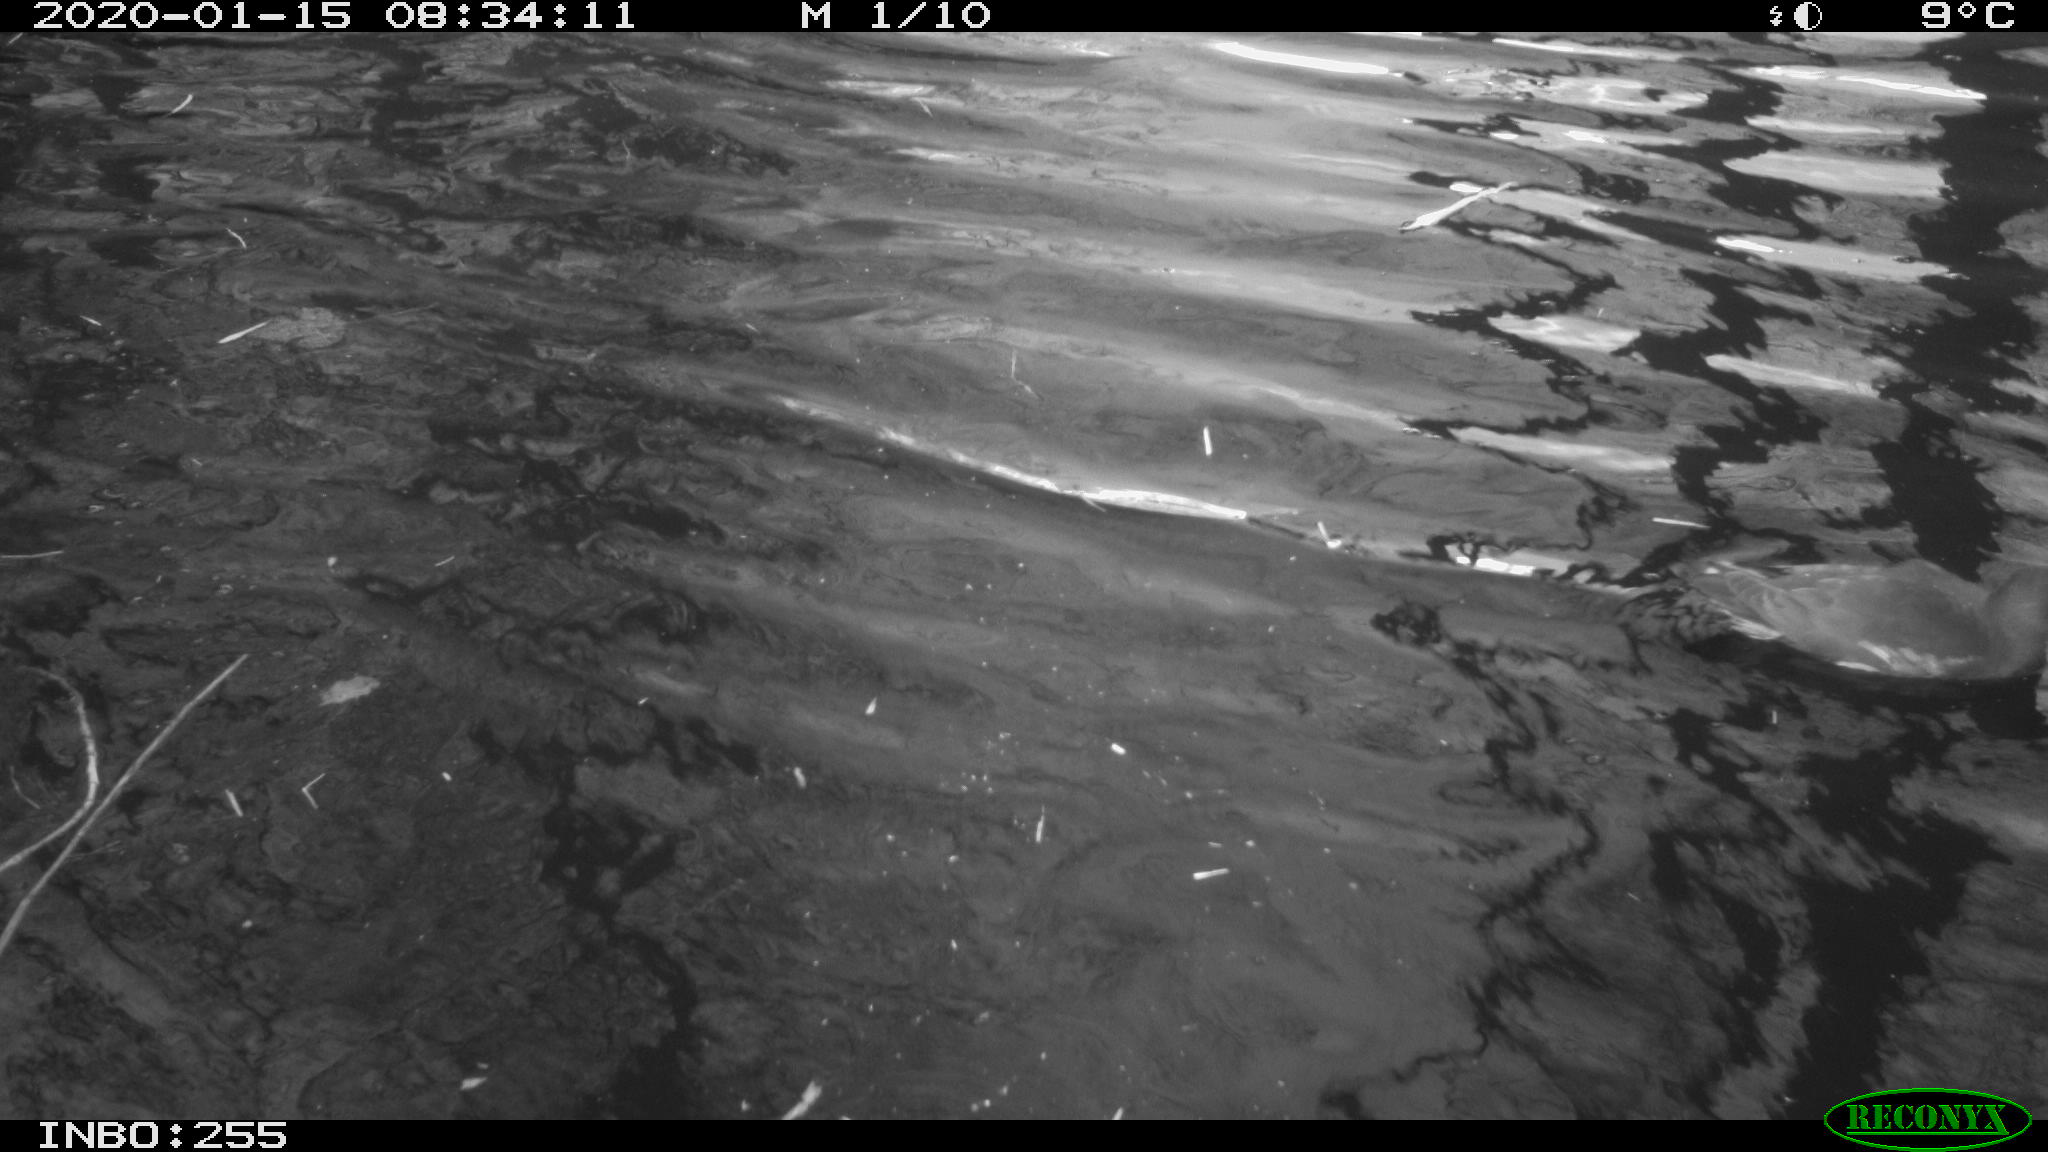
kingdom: Animalia
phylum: Chordata
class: Aves
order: Gruiformes
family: Rallidae
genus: Gallinula
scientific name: Gallinula chloropus
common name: Common moorhen
